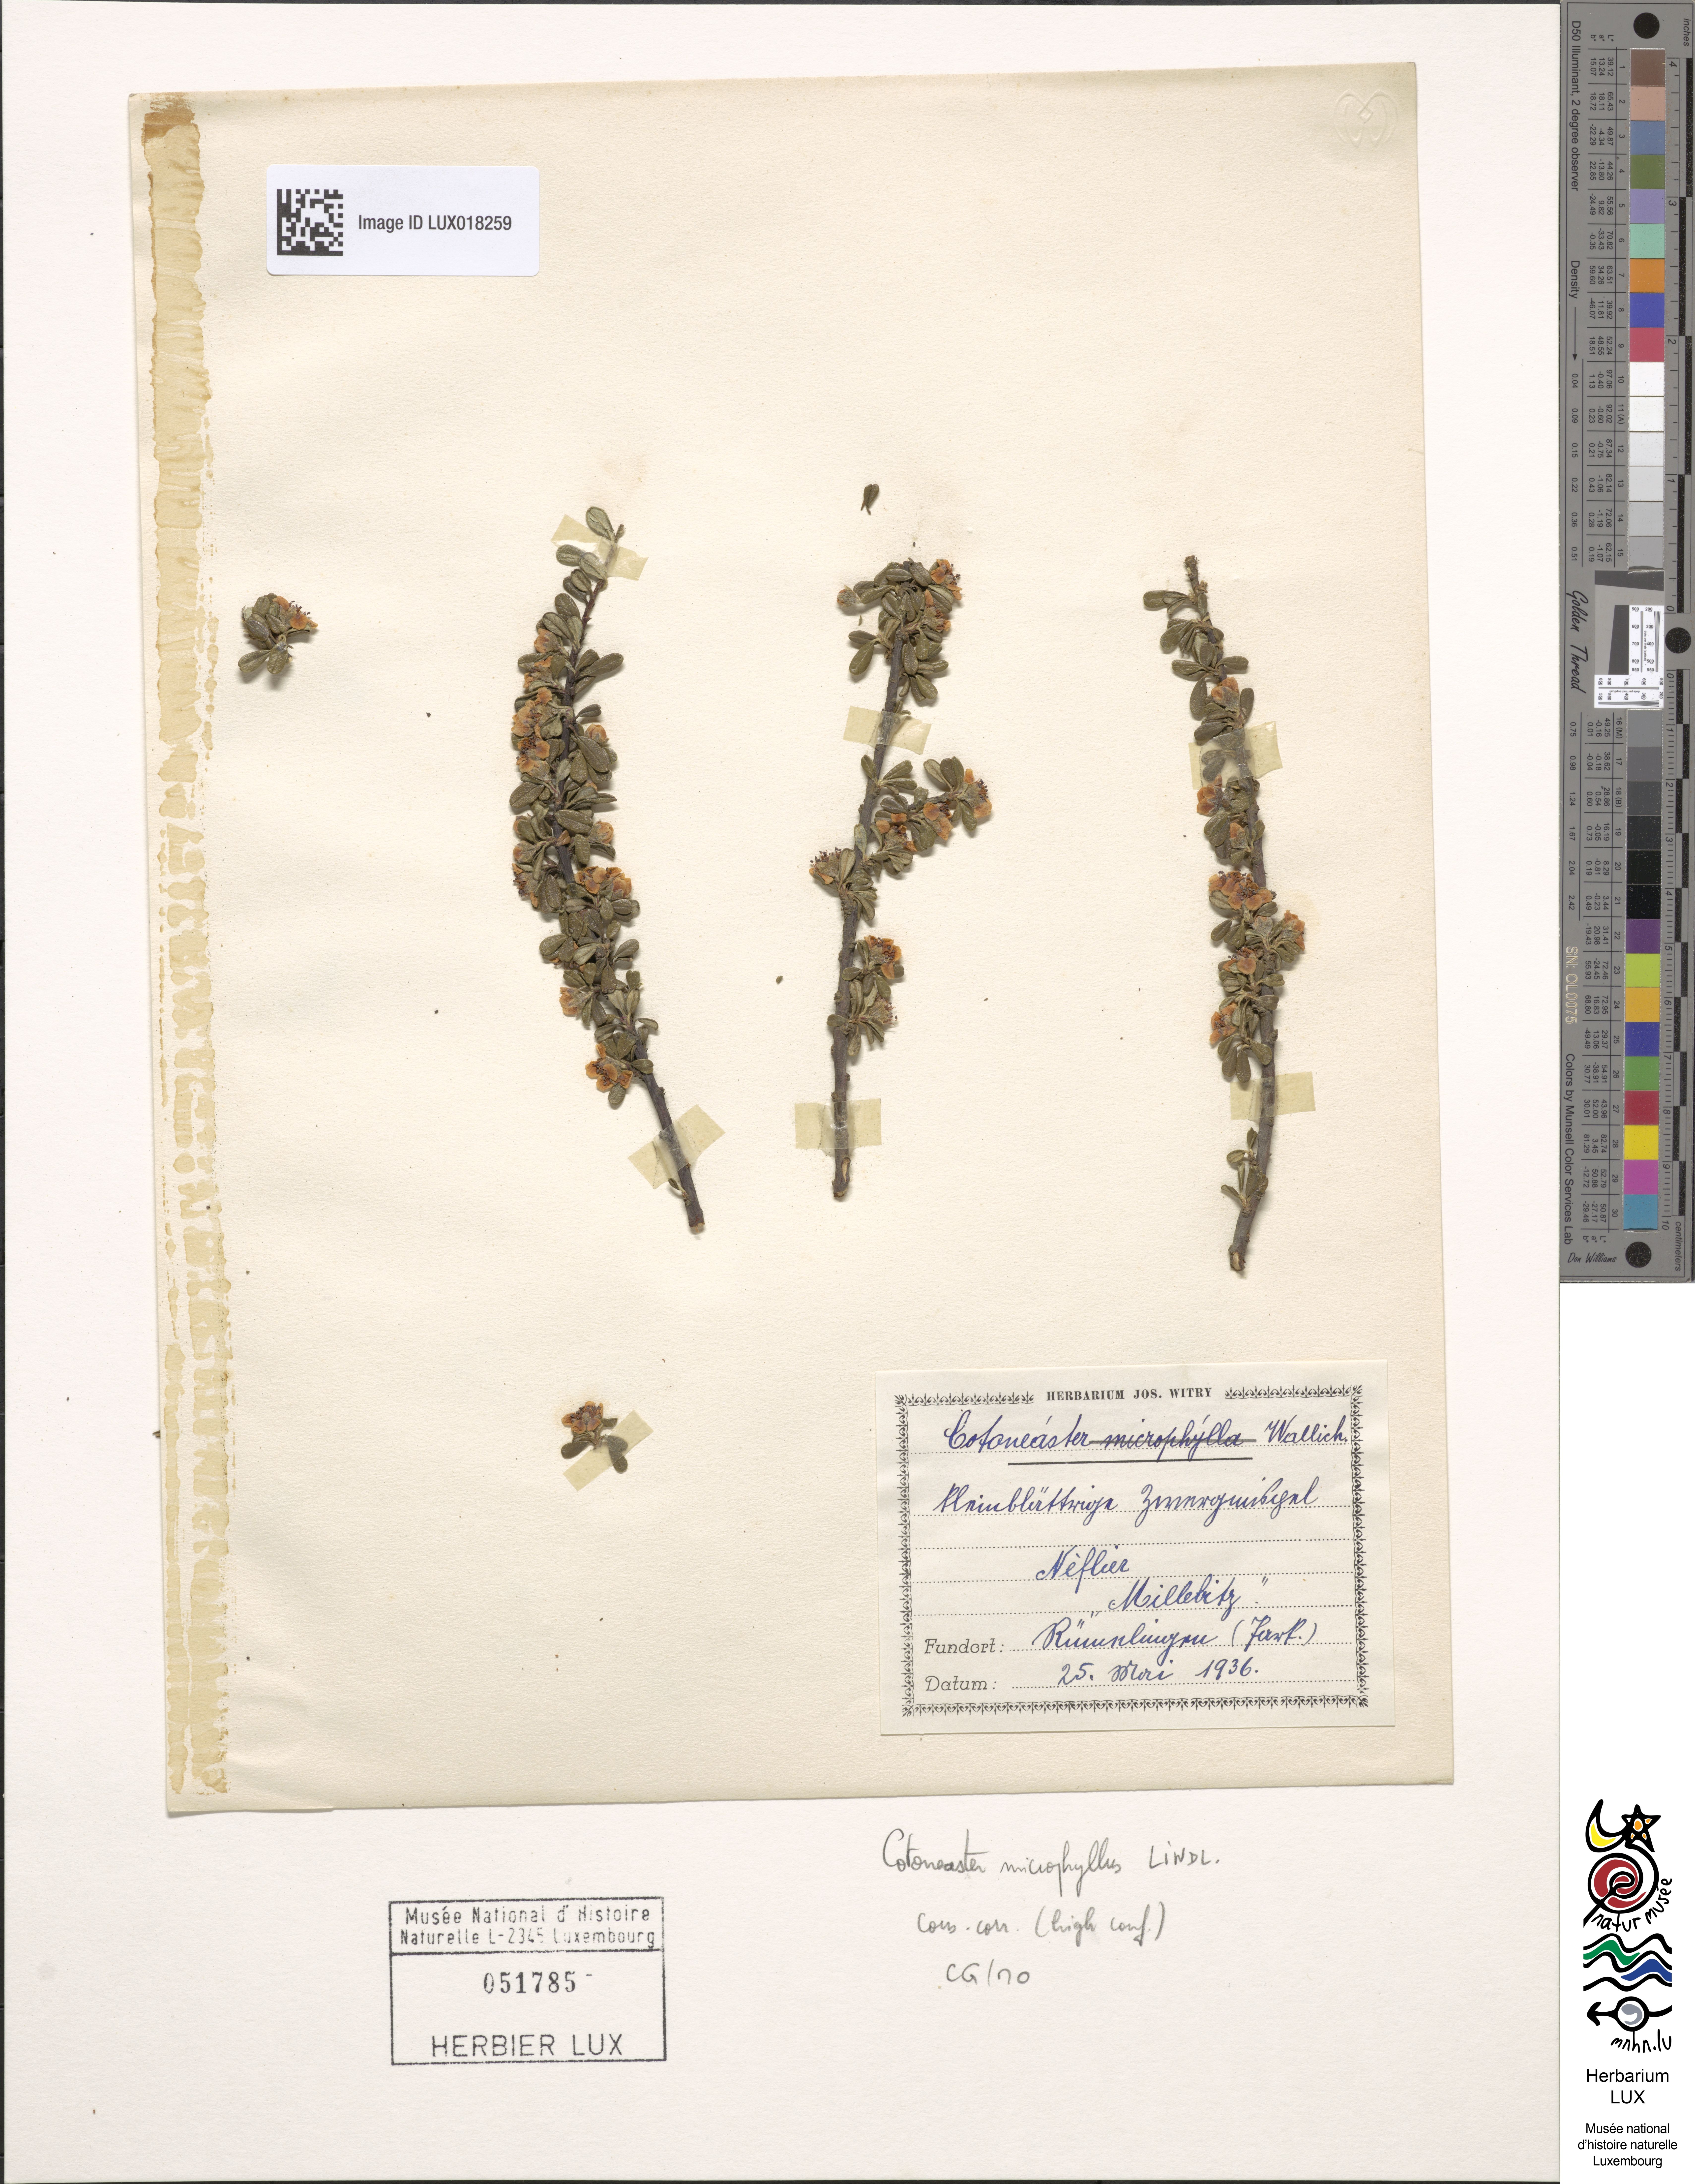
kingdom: Plantae
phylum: Tracheophyta
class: Magnoliopsida
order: Rosales
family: Rosaceae
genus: Cotoneaster
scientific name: Cotoneaster microphyllus
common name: Small-leaved cotoneaster
